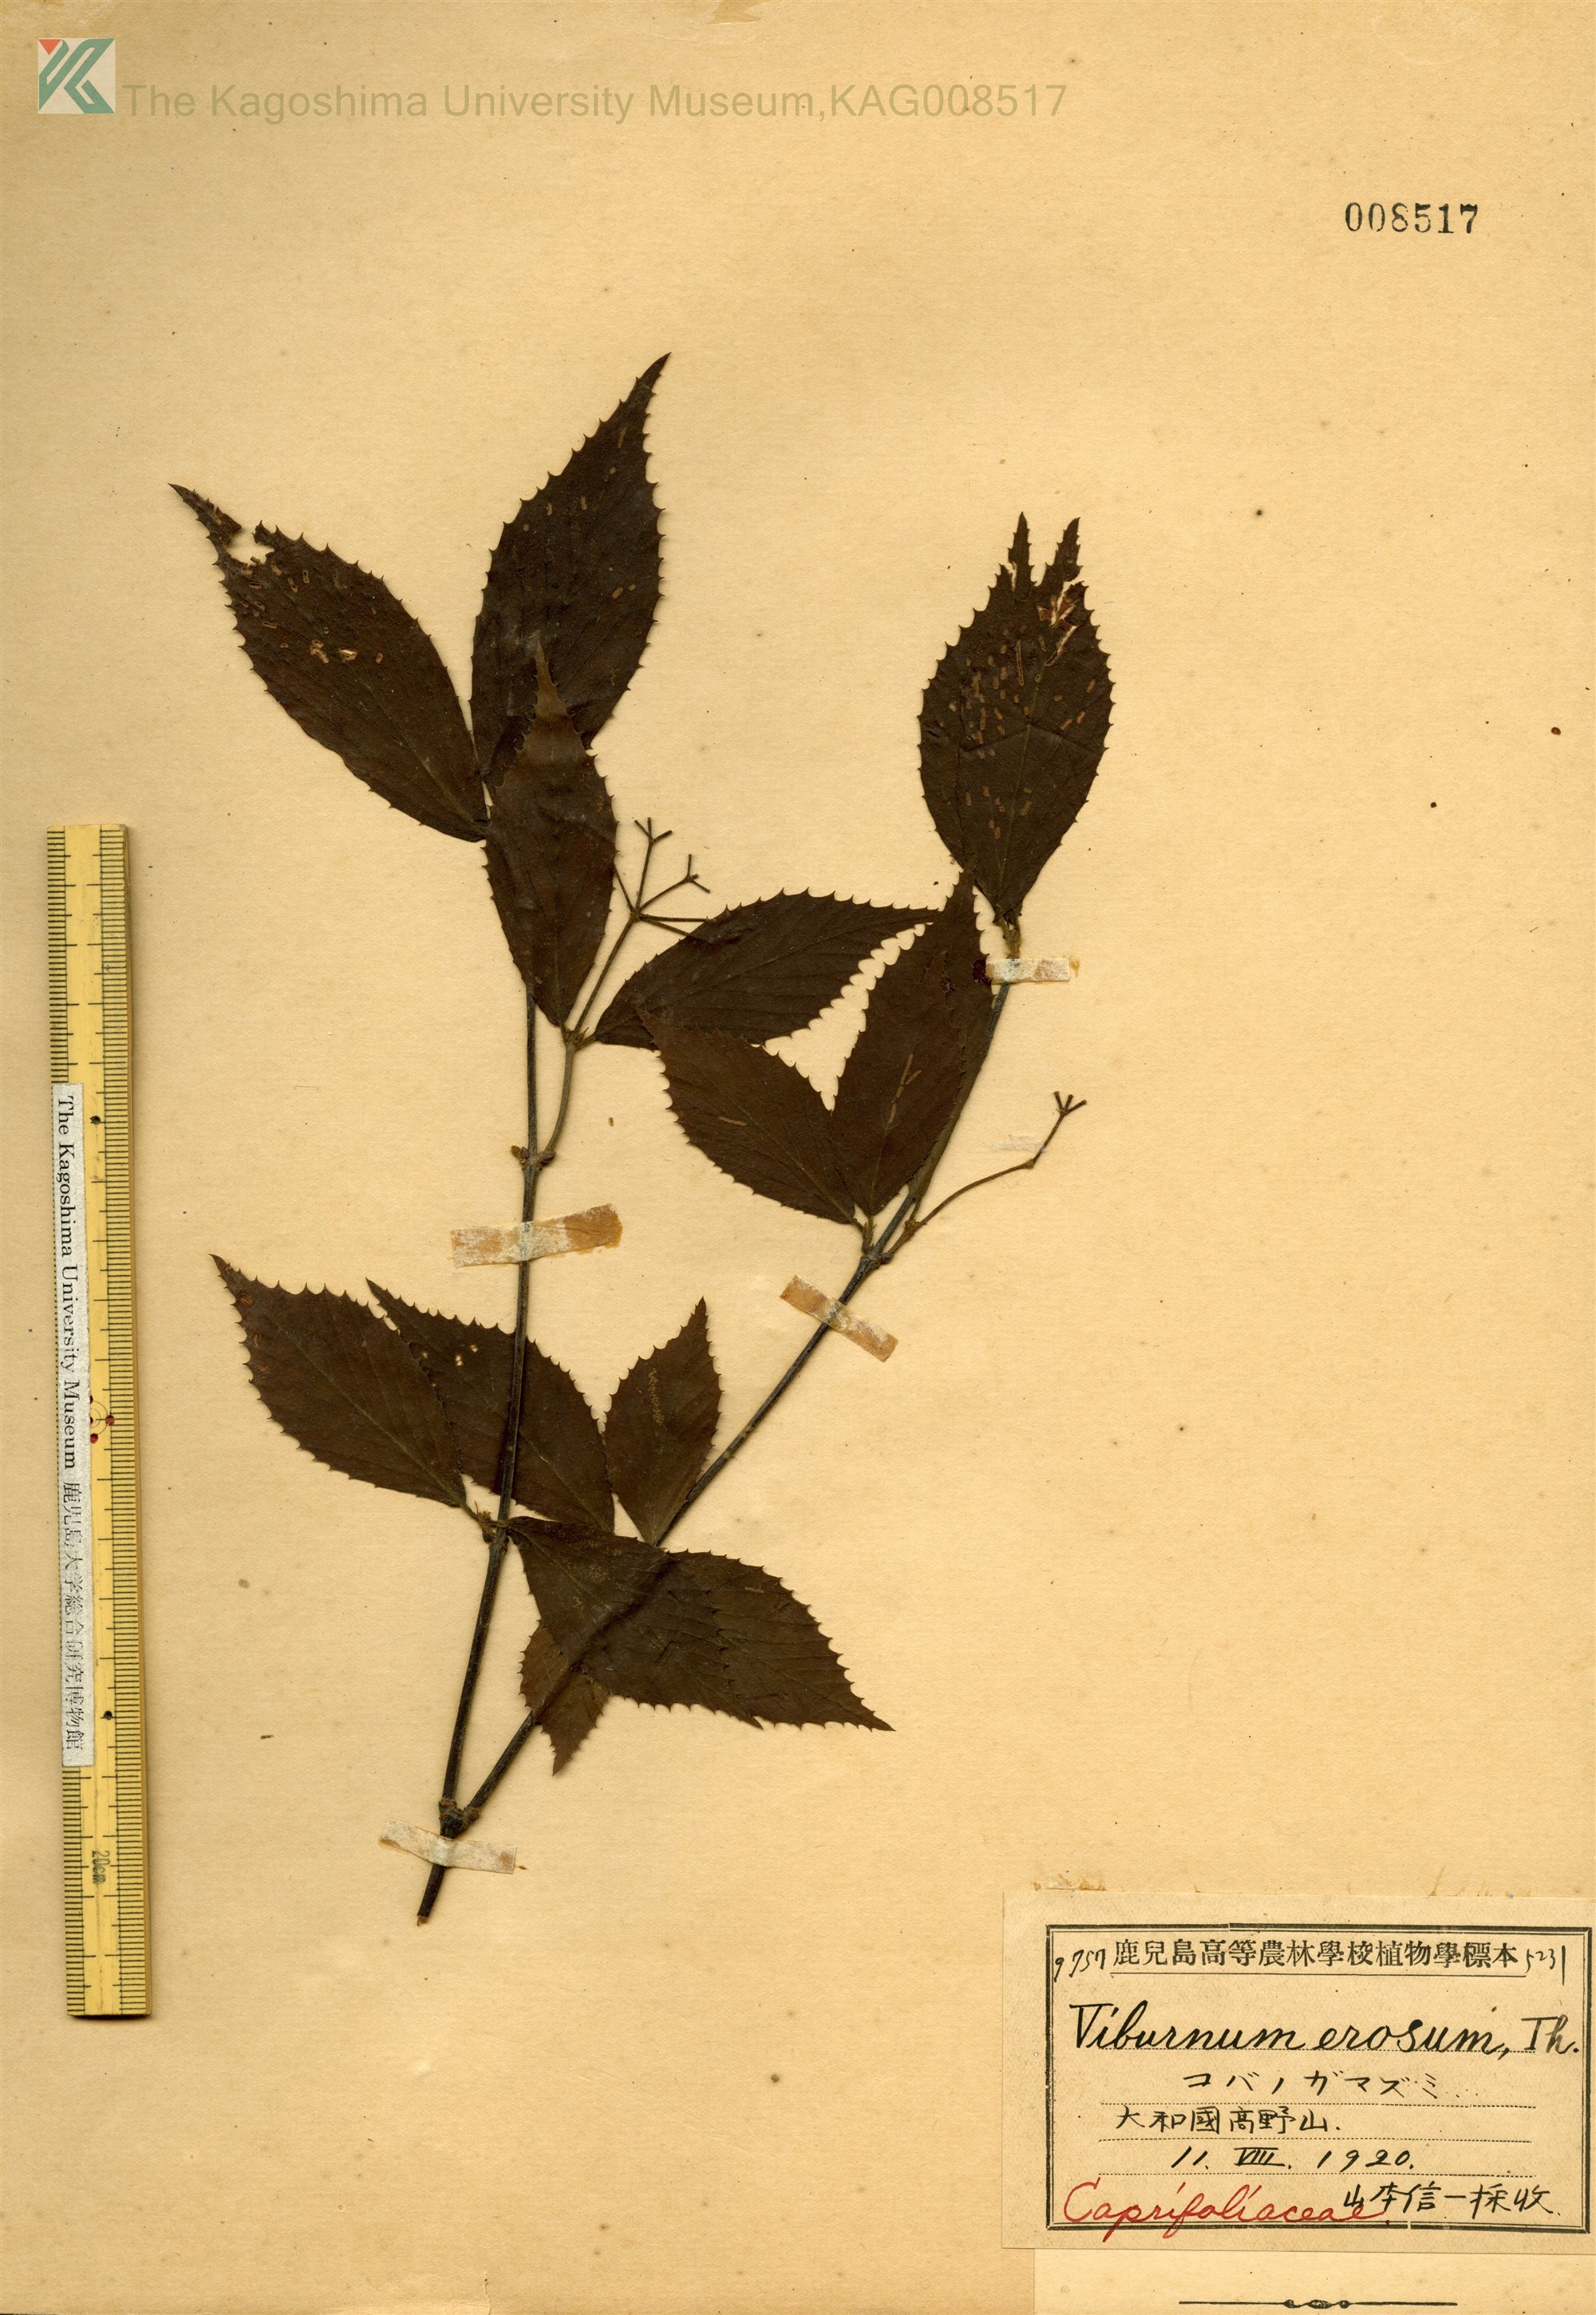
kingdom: Plantae
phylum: Tracheophyta
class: Magnoliopsida
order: Dipsacales
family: Viburnaceae
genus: Viburnum
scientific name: Viburnum erosum
